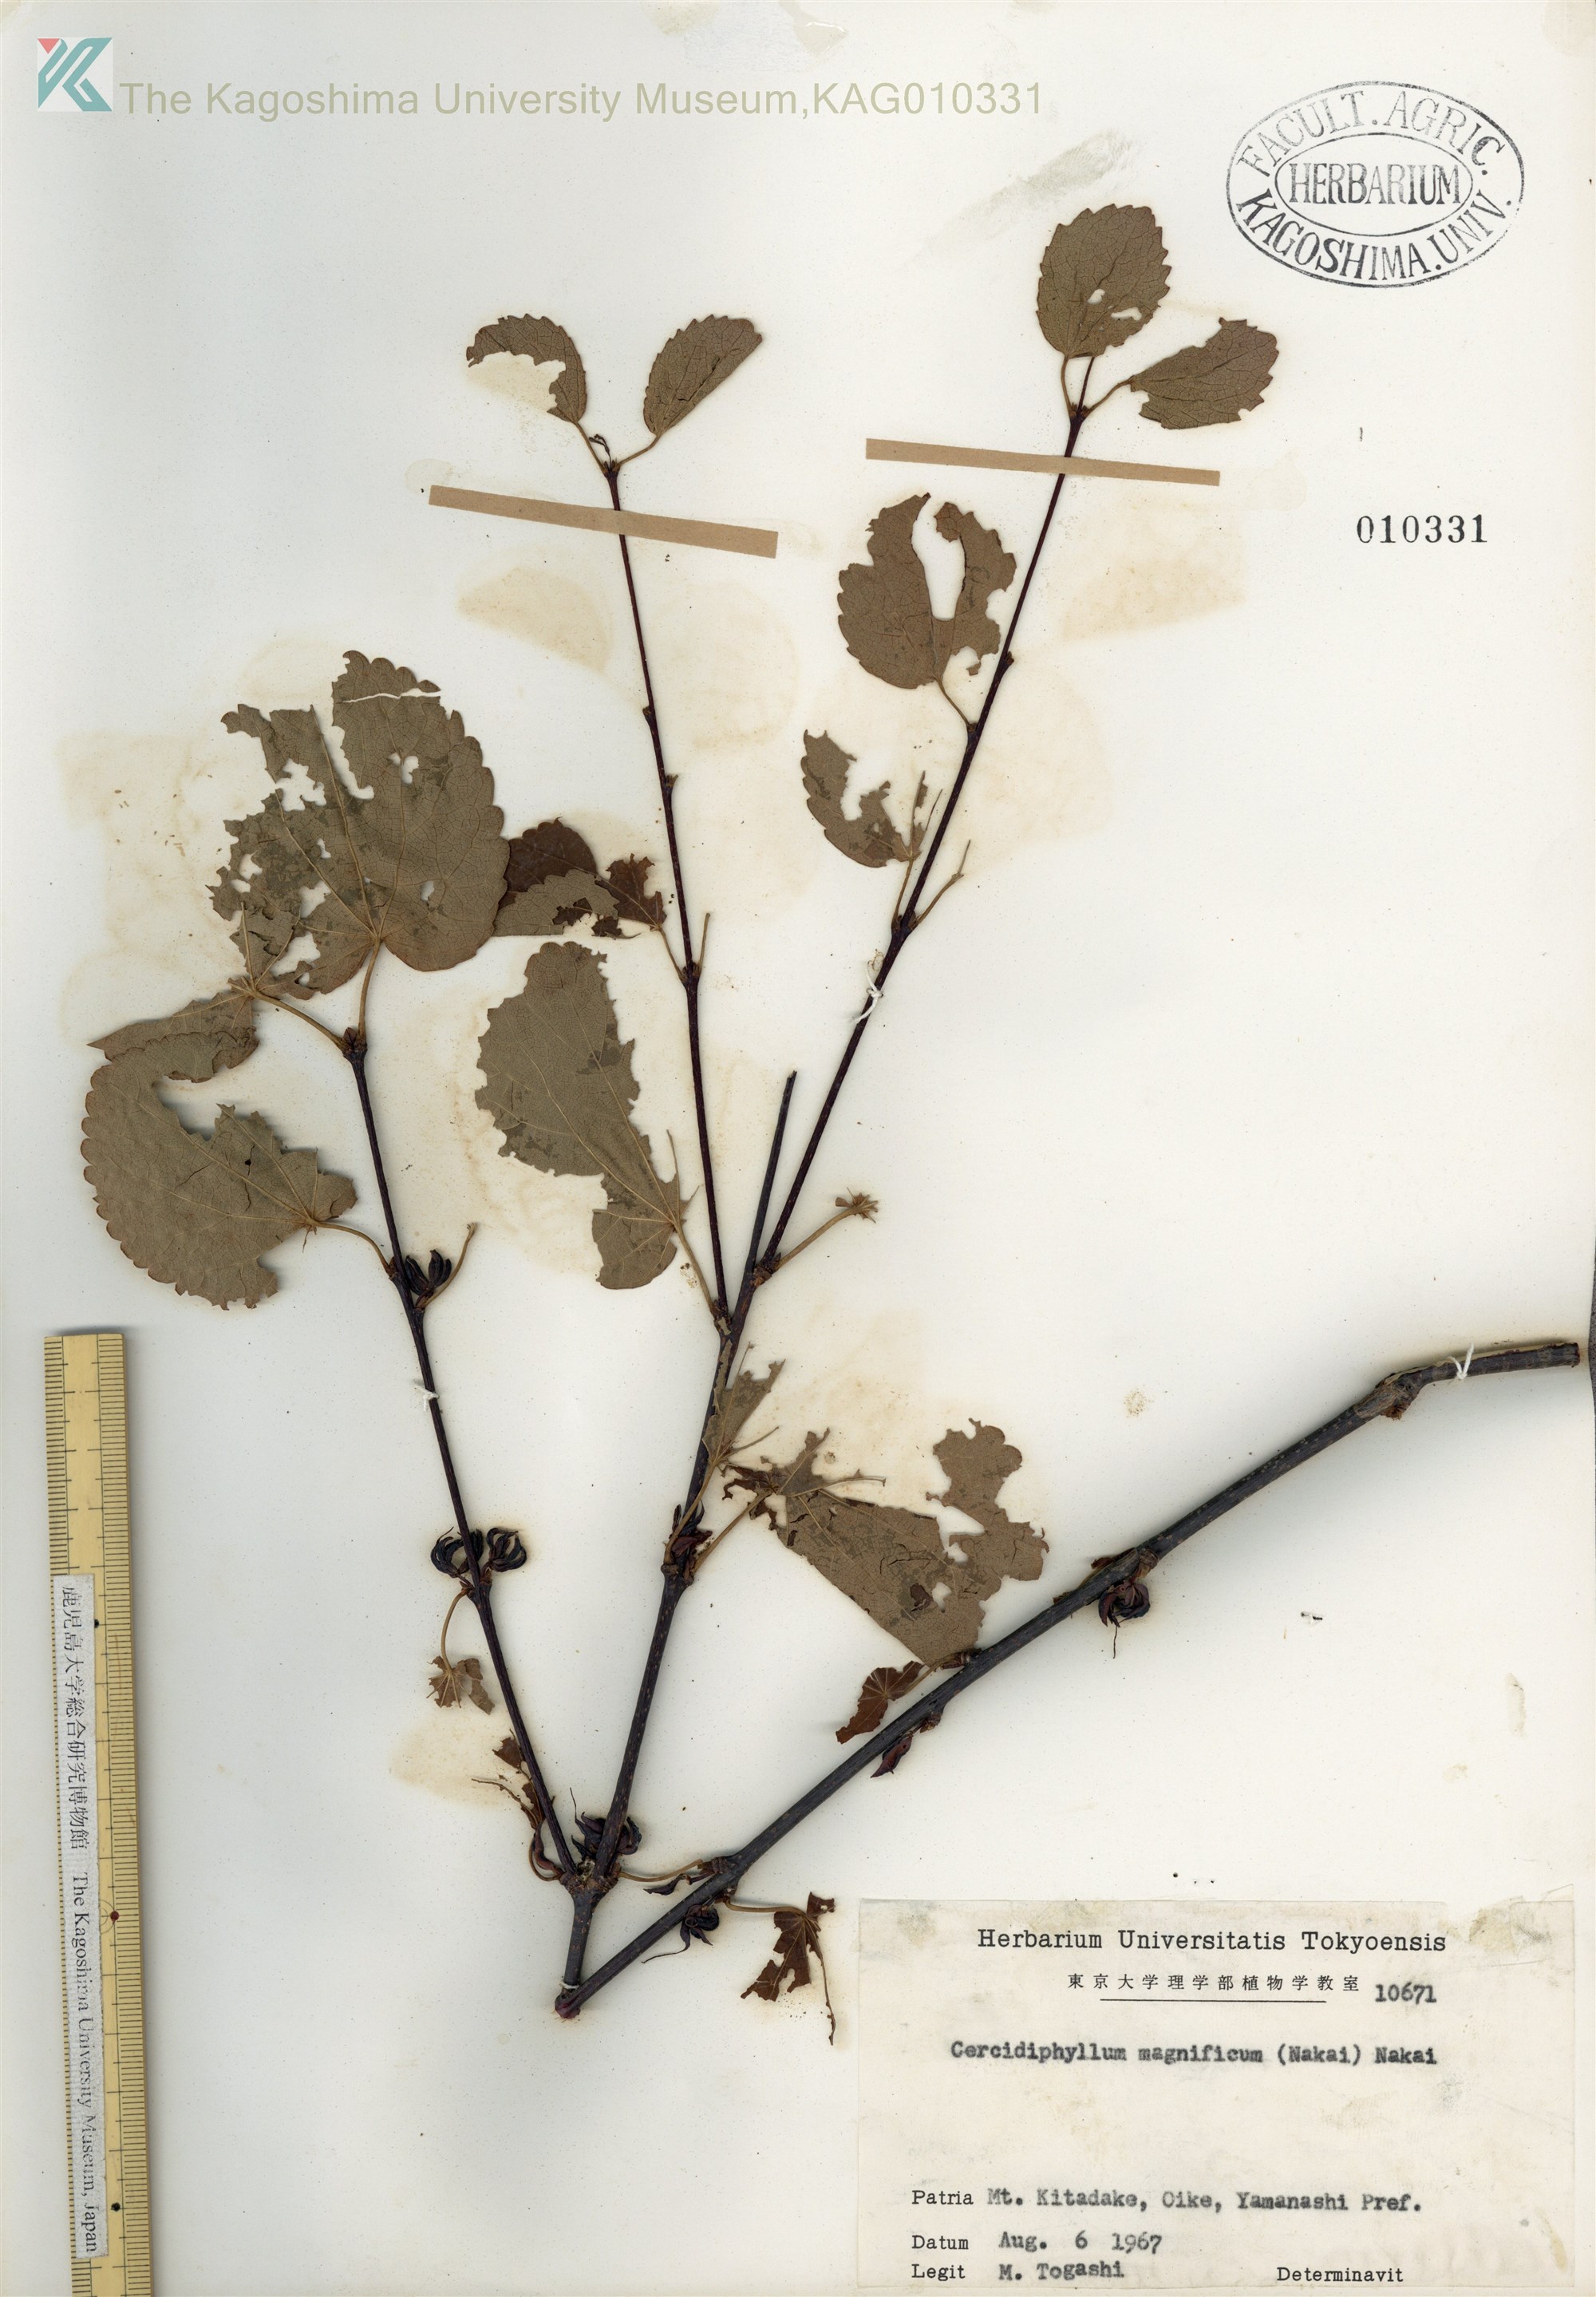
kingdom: Plantae
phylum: Tracheophyta
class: Magnoliopsida
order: Saxifragales
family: Cercidiphyllaceae
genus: Cercidiphyllum
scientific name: Cercidiphyllum magnificum
